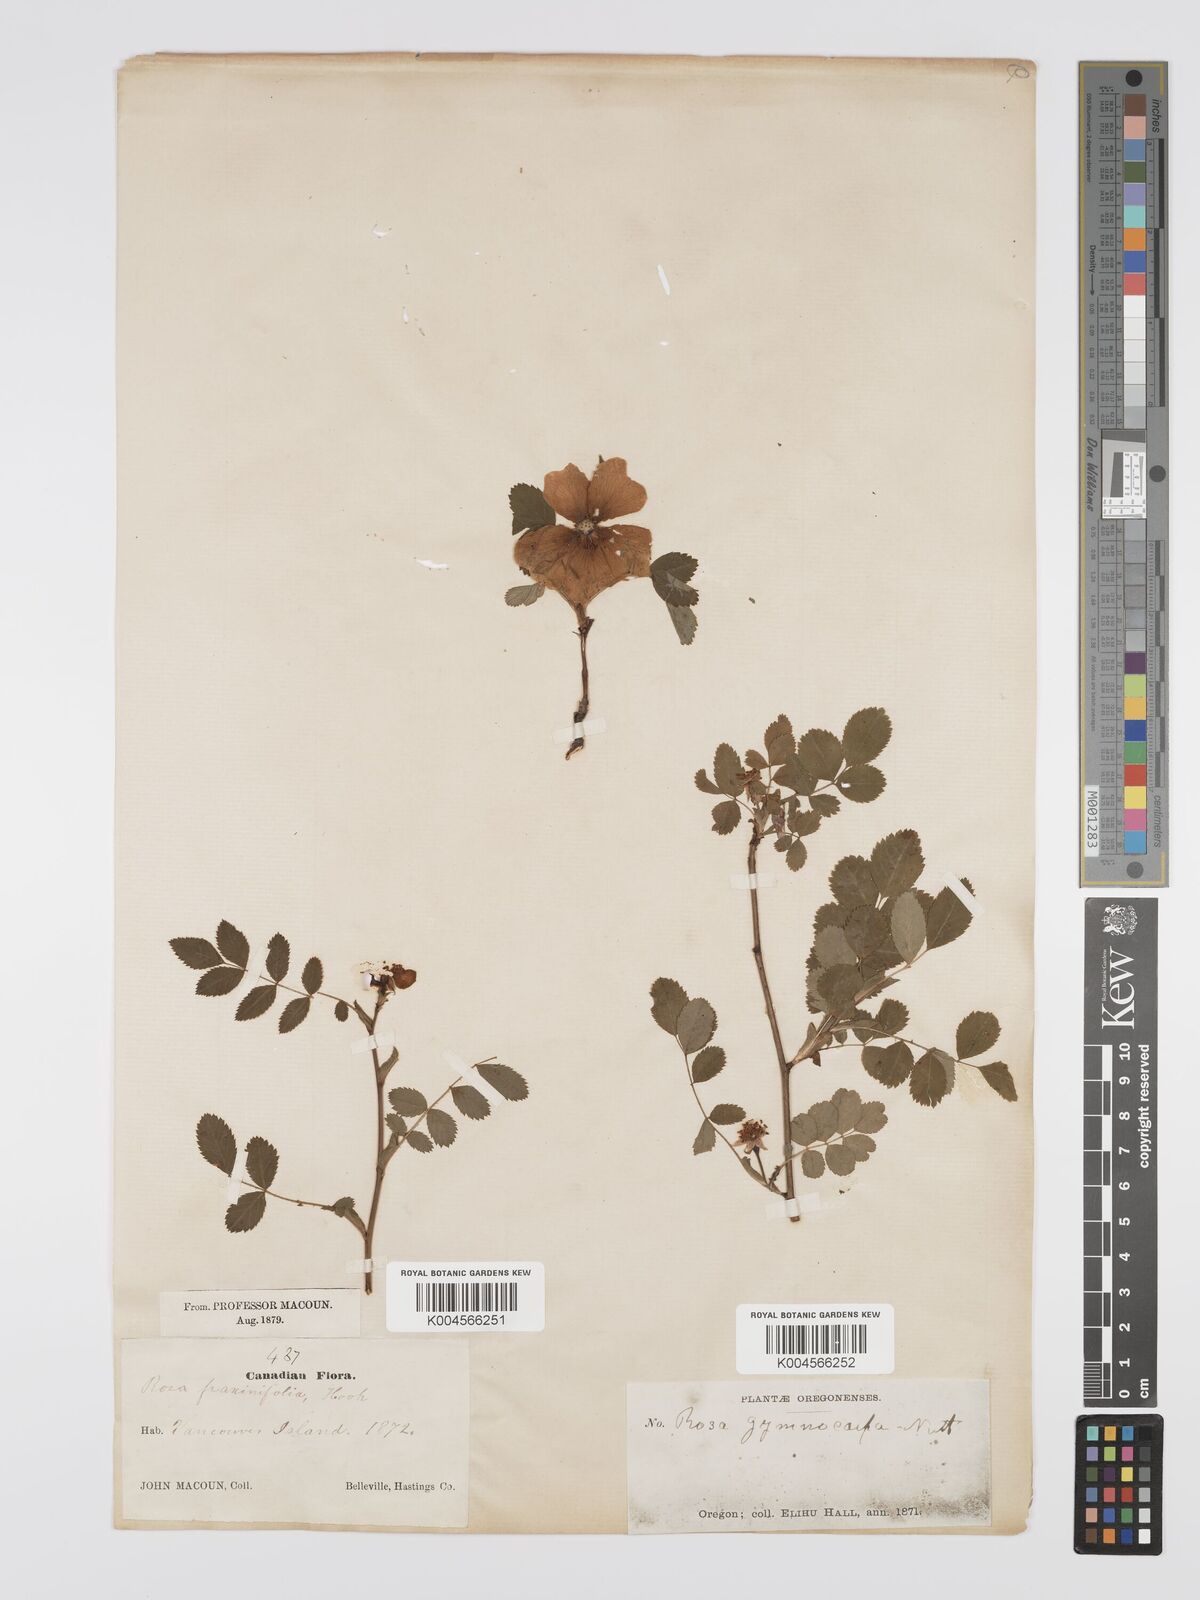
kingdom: Plantae
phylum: Tracheophyta
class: Magnoliopsida
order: Rosales
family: Rosaceae
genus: Rosa
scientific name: Rosa gymnocarpa
